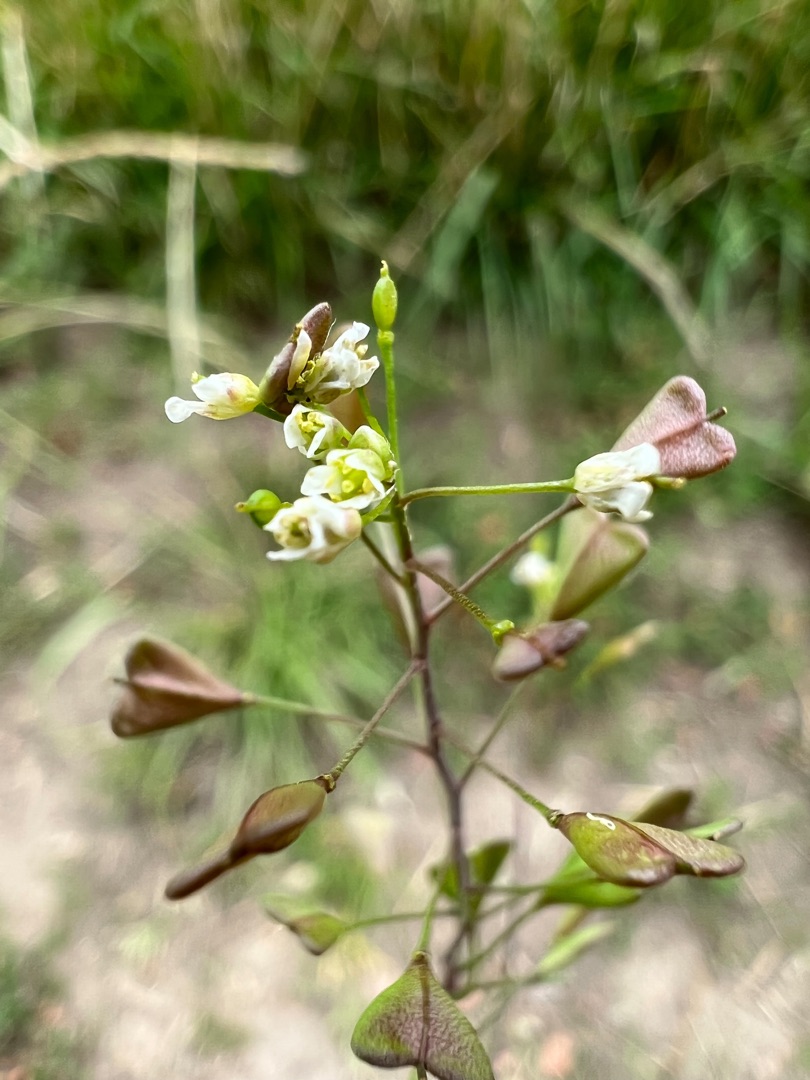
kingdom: Plantae
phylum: Tracheophyta
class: Magnoliopsida
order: Brassicales
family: Brassicaceae
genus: Capsella
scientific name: Capsella bursa-pastoris
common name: Hyrdetaske
